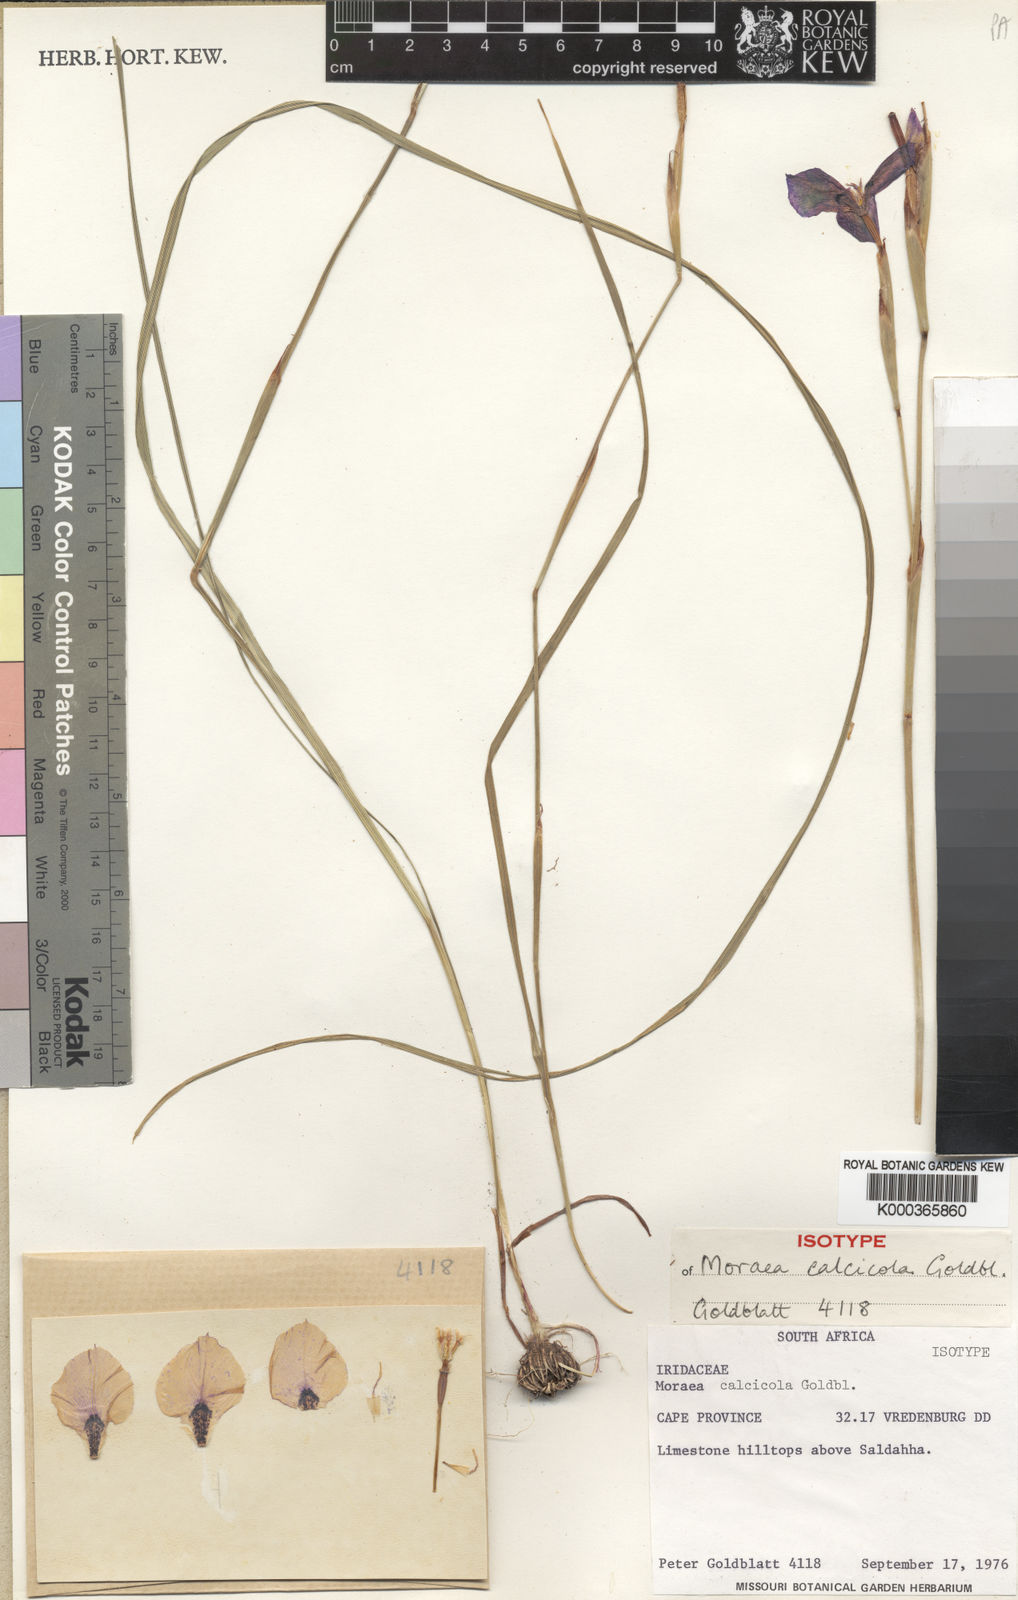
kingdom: Plantae
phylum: Tracheophyta
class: Liliopsida
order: Asparagales
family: Iridaceae
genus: Moraea
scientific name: Moraea calcicola
